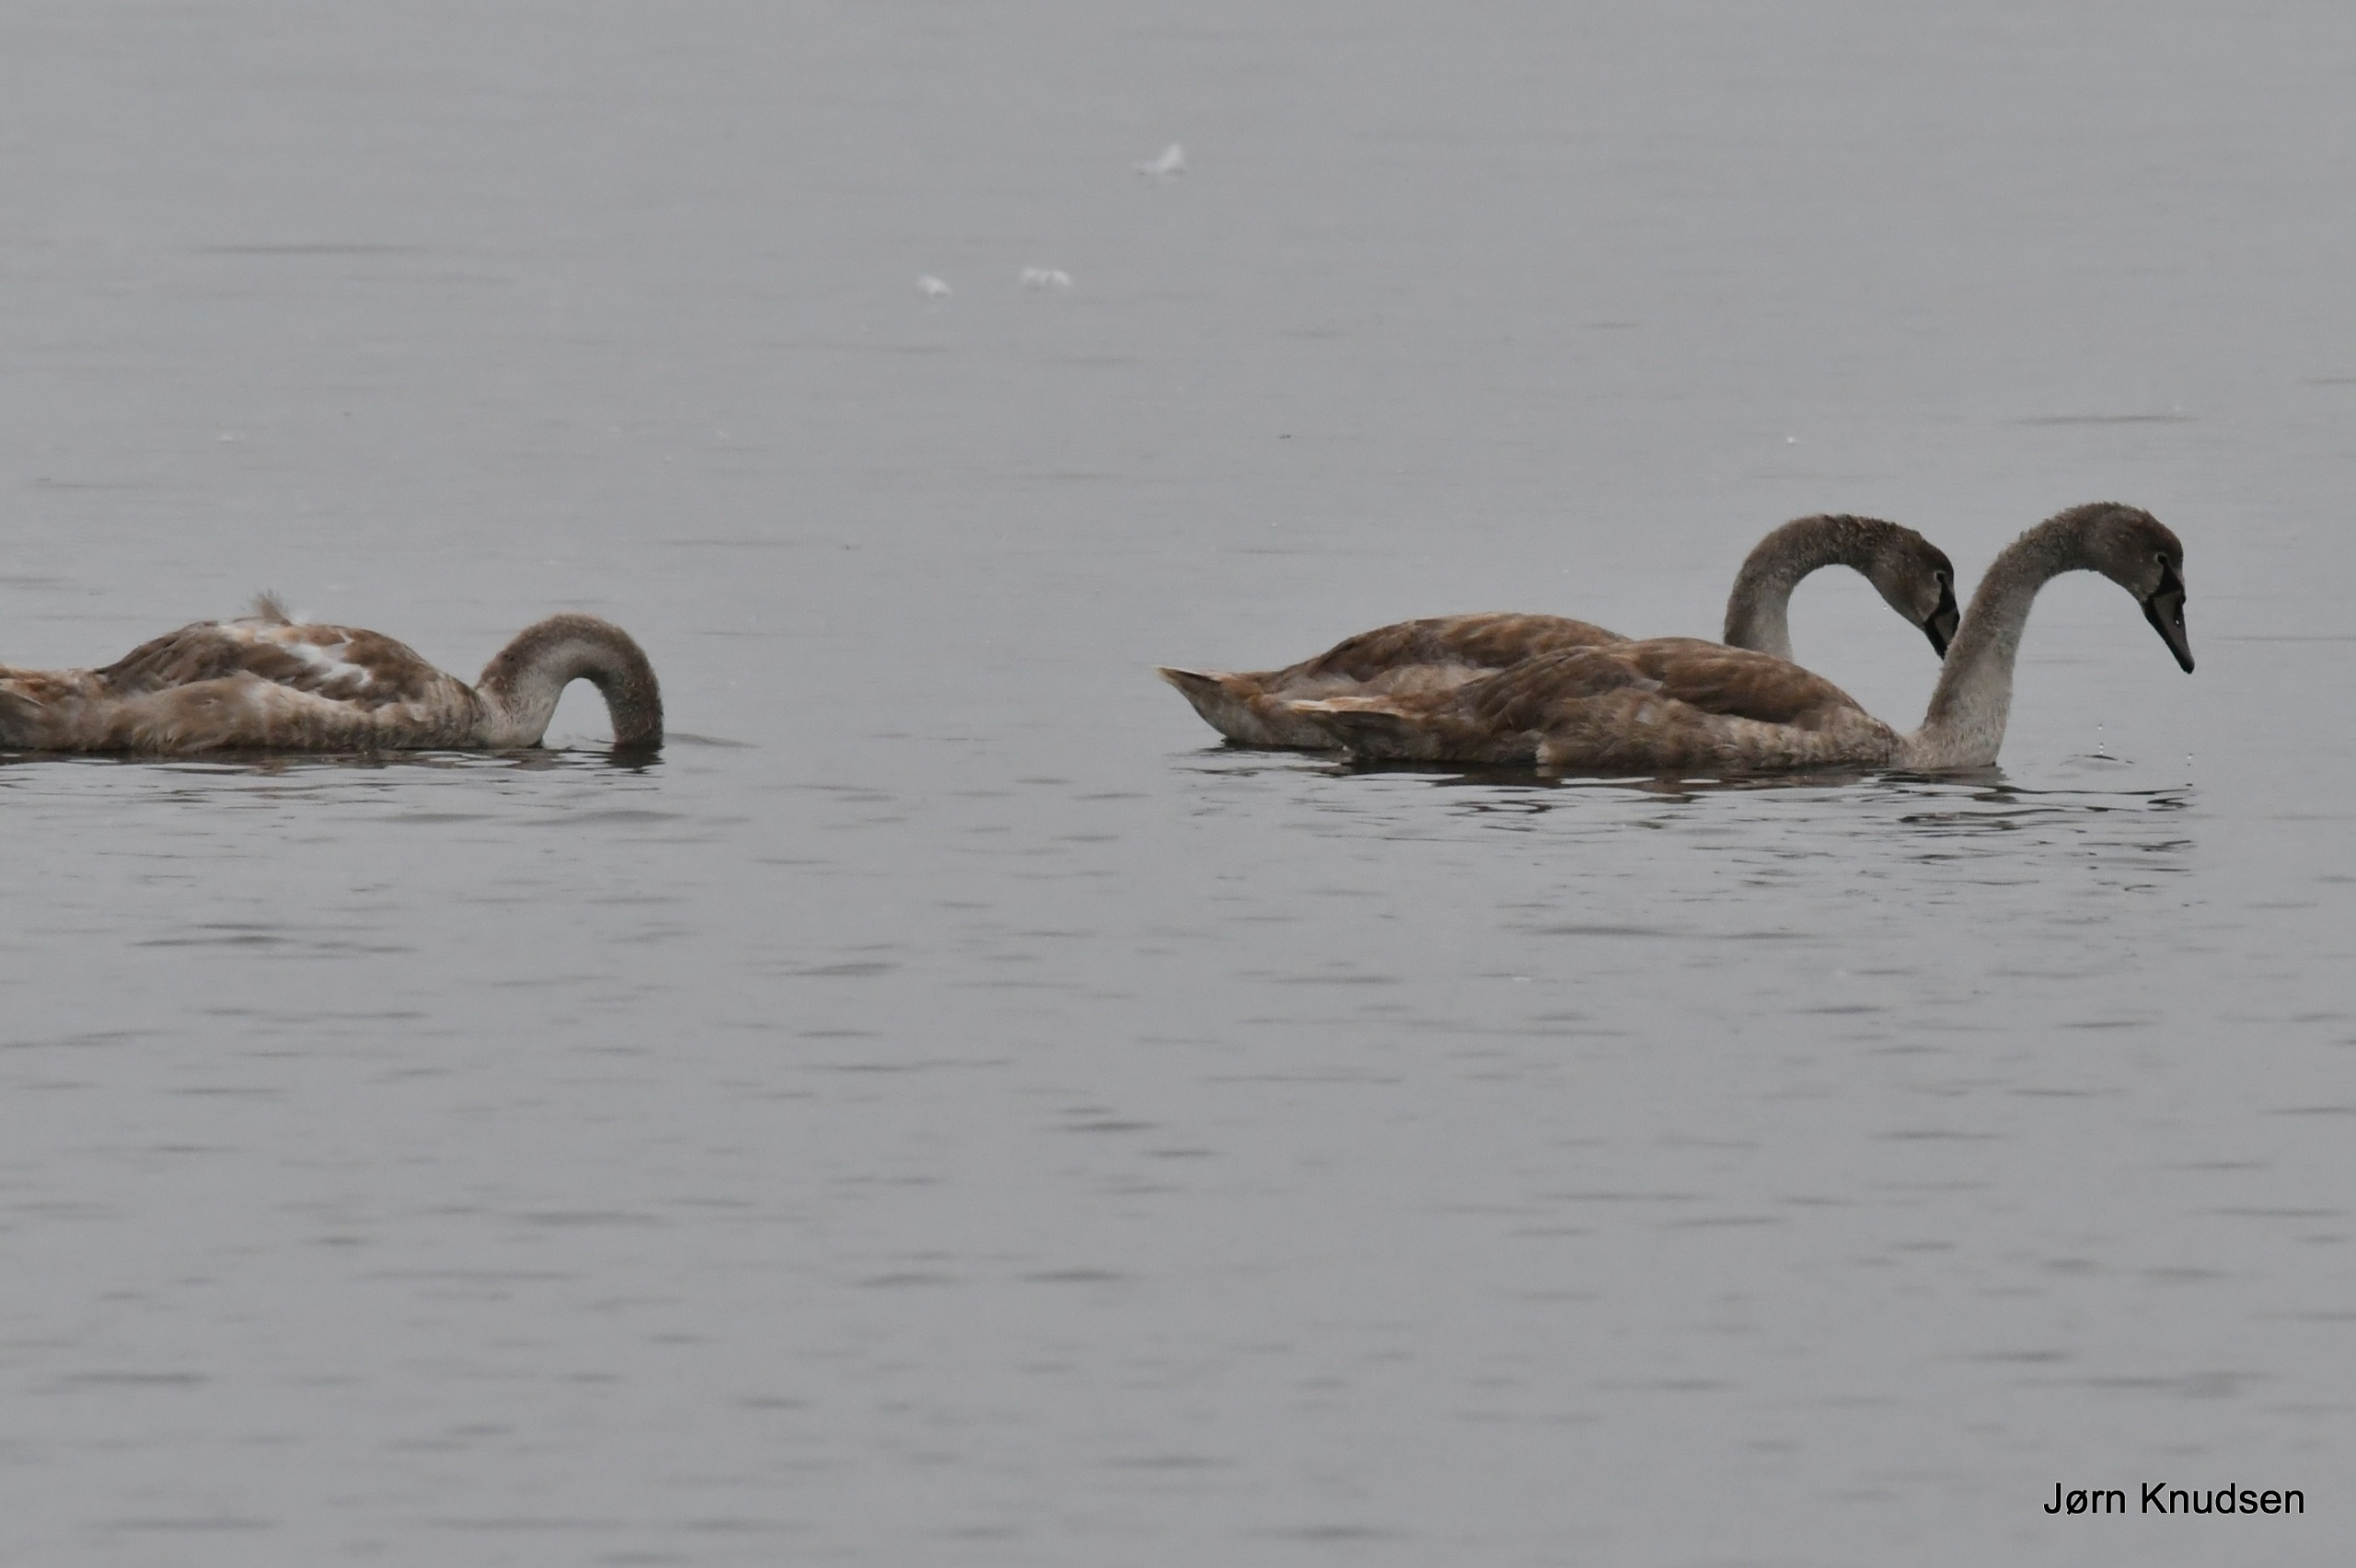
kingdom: Animalia
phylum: Chordata
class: Aves
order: Anseriformes
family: Anatidae
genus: Cygnus
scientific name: Cygnus olor
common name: Knopsvane
